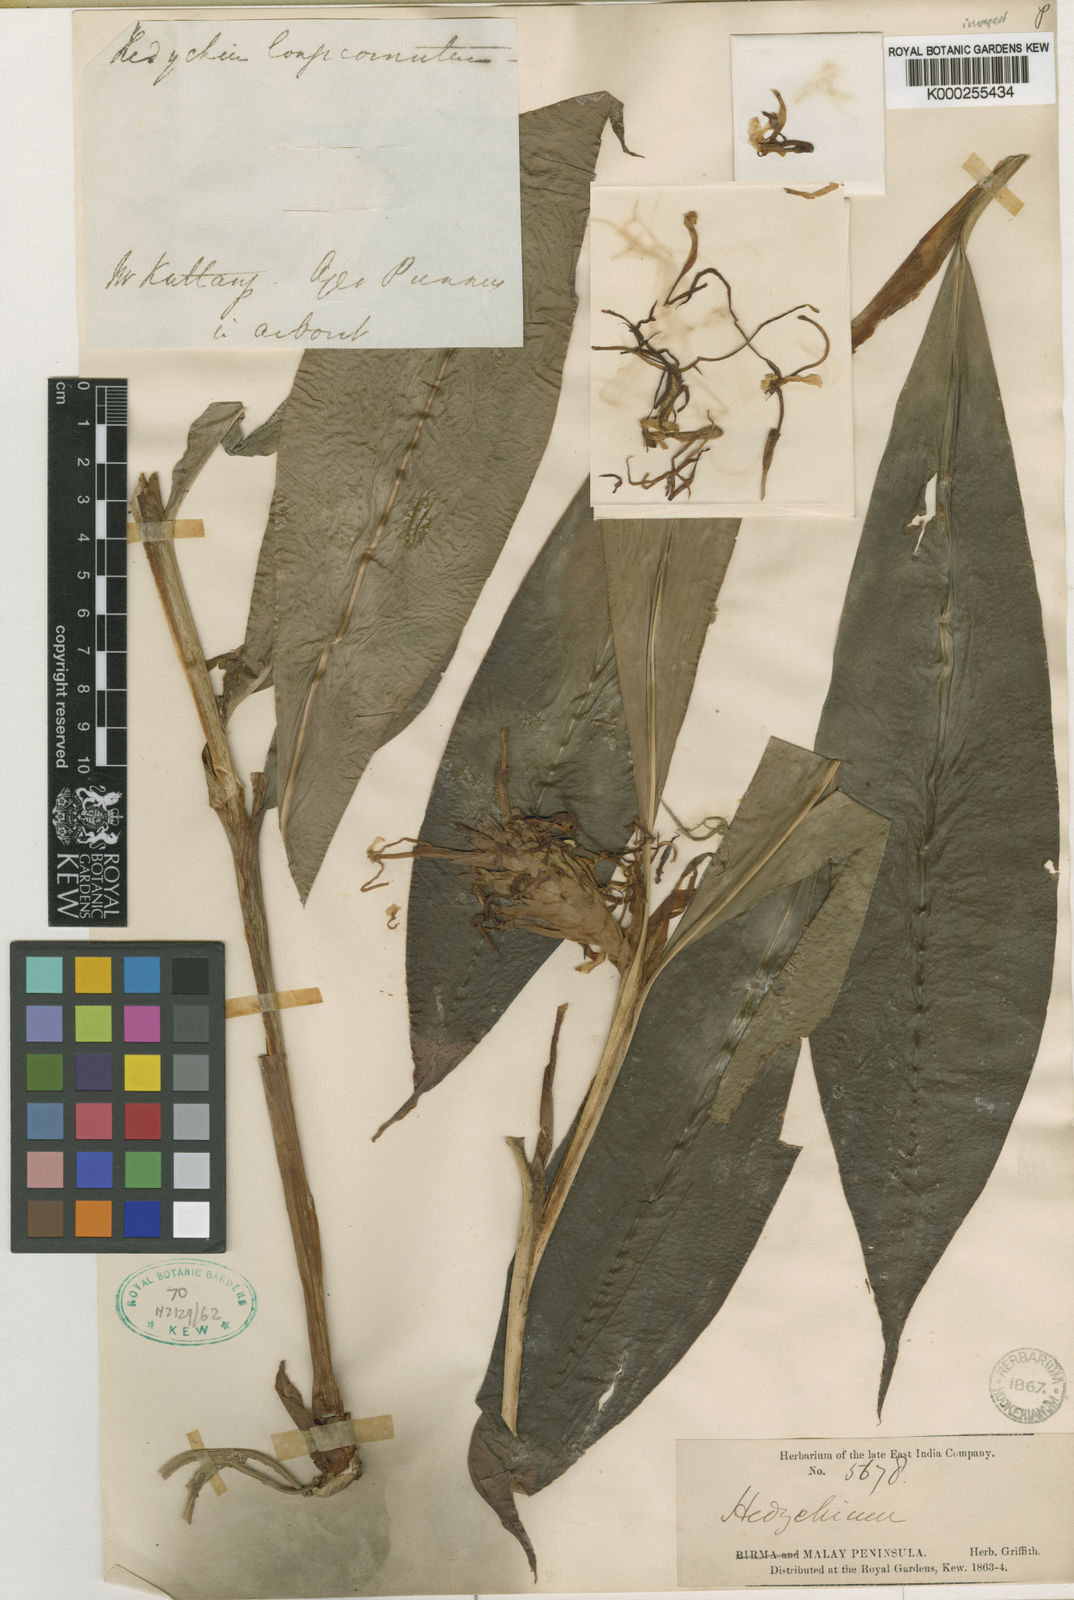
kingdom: Plantae
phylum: Tracheophyta
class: Liliopsida
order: Zingiberales
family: Zingiberaceae
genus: Hedychium
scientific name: Hedychium longicornutum
